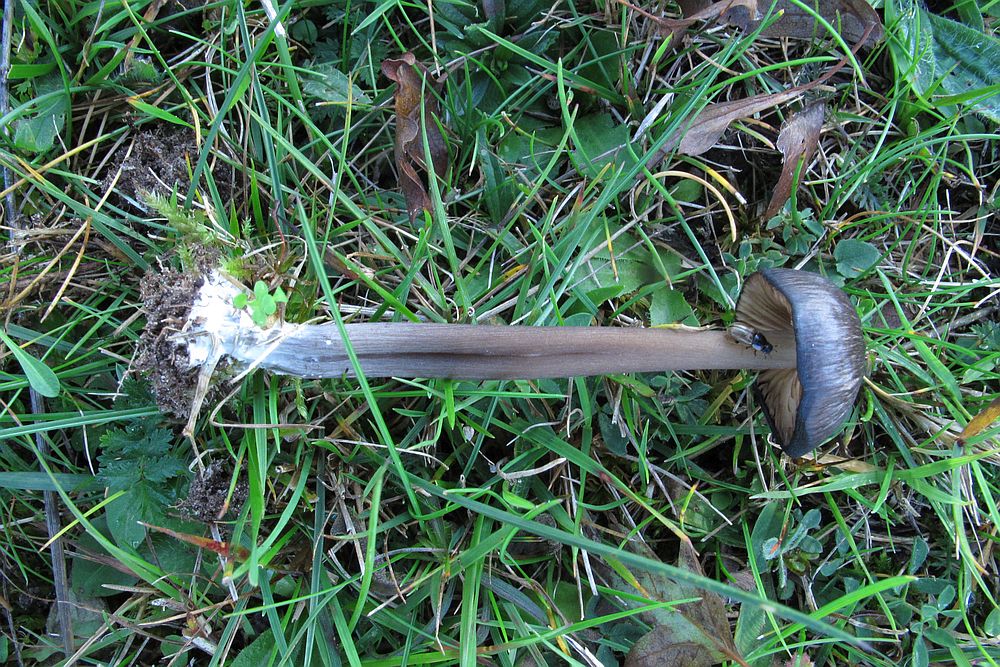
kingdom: Fungi
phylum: Basidiomycota
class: Agaricomycetes
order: Agaricales
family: Entolomataceae
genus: Entoloma
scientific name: Entoloma
